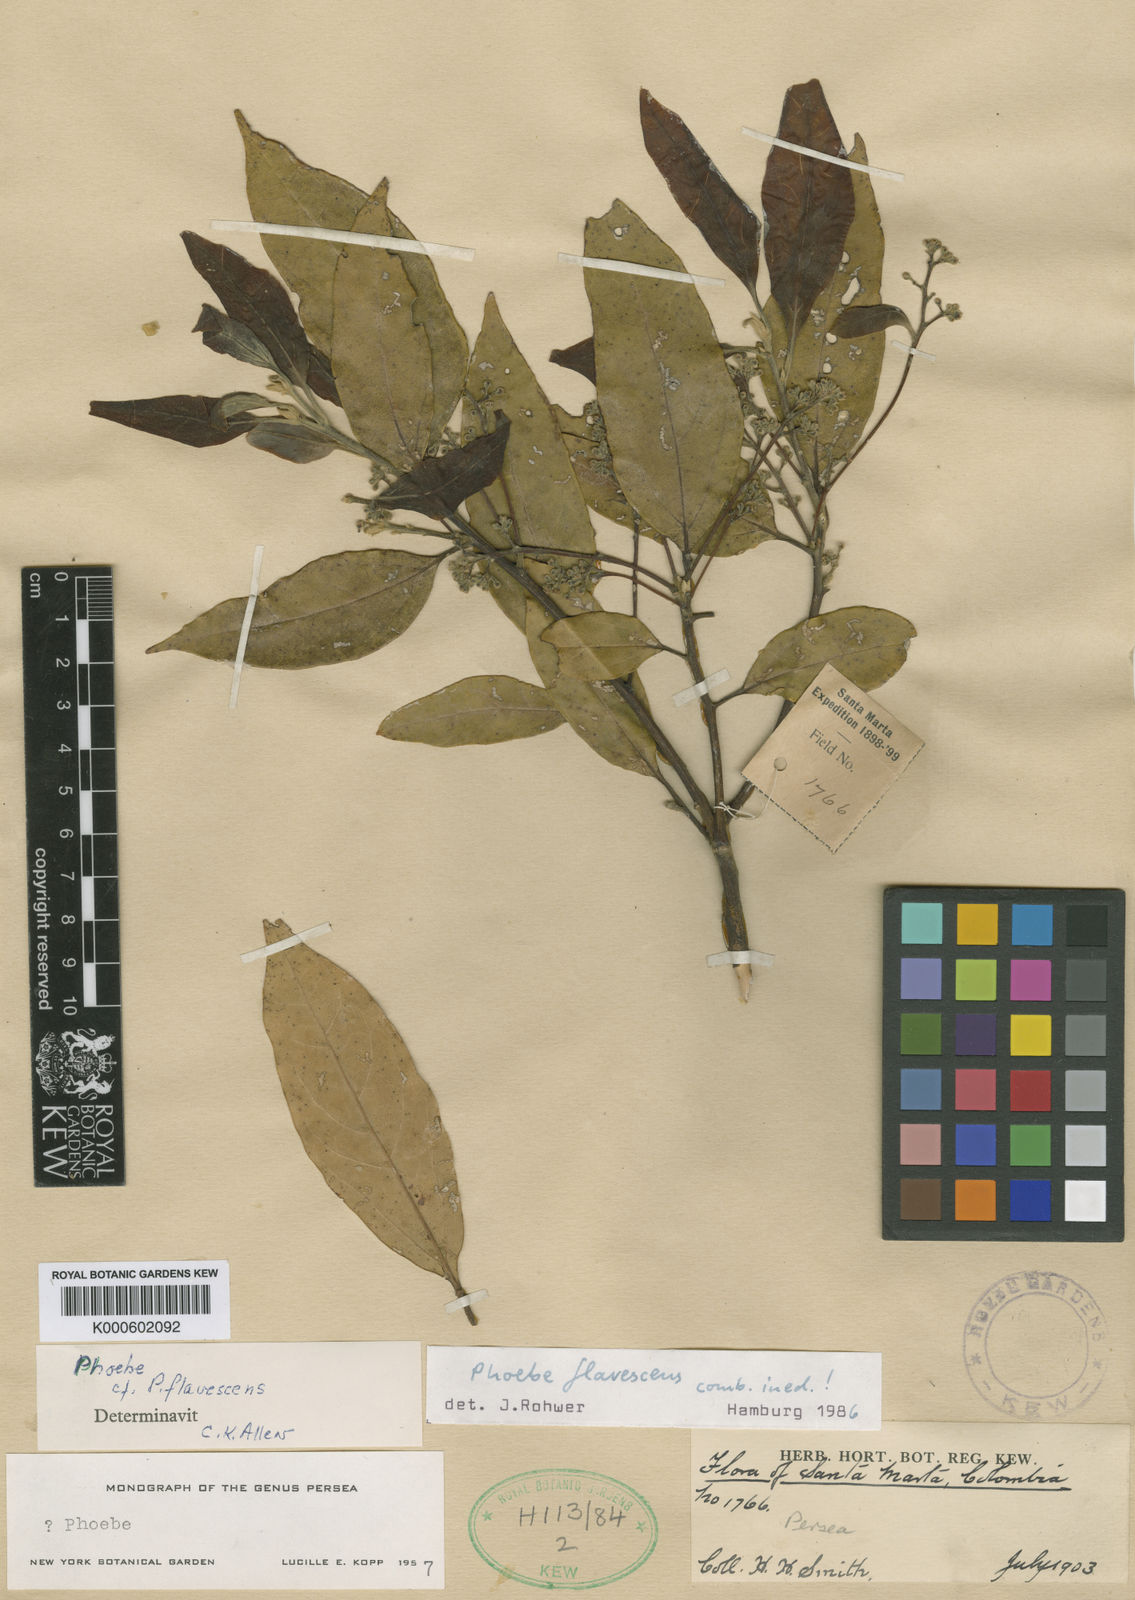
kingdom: Plantae
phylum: Tracheophyta
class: Magnoliopsida
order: Laurales
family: Lauraceae
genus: Aiouea
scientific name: Aiouea montana
